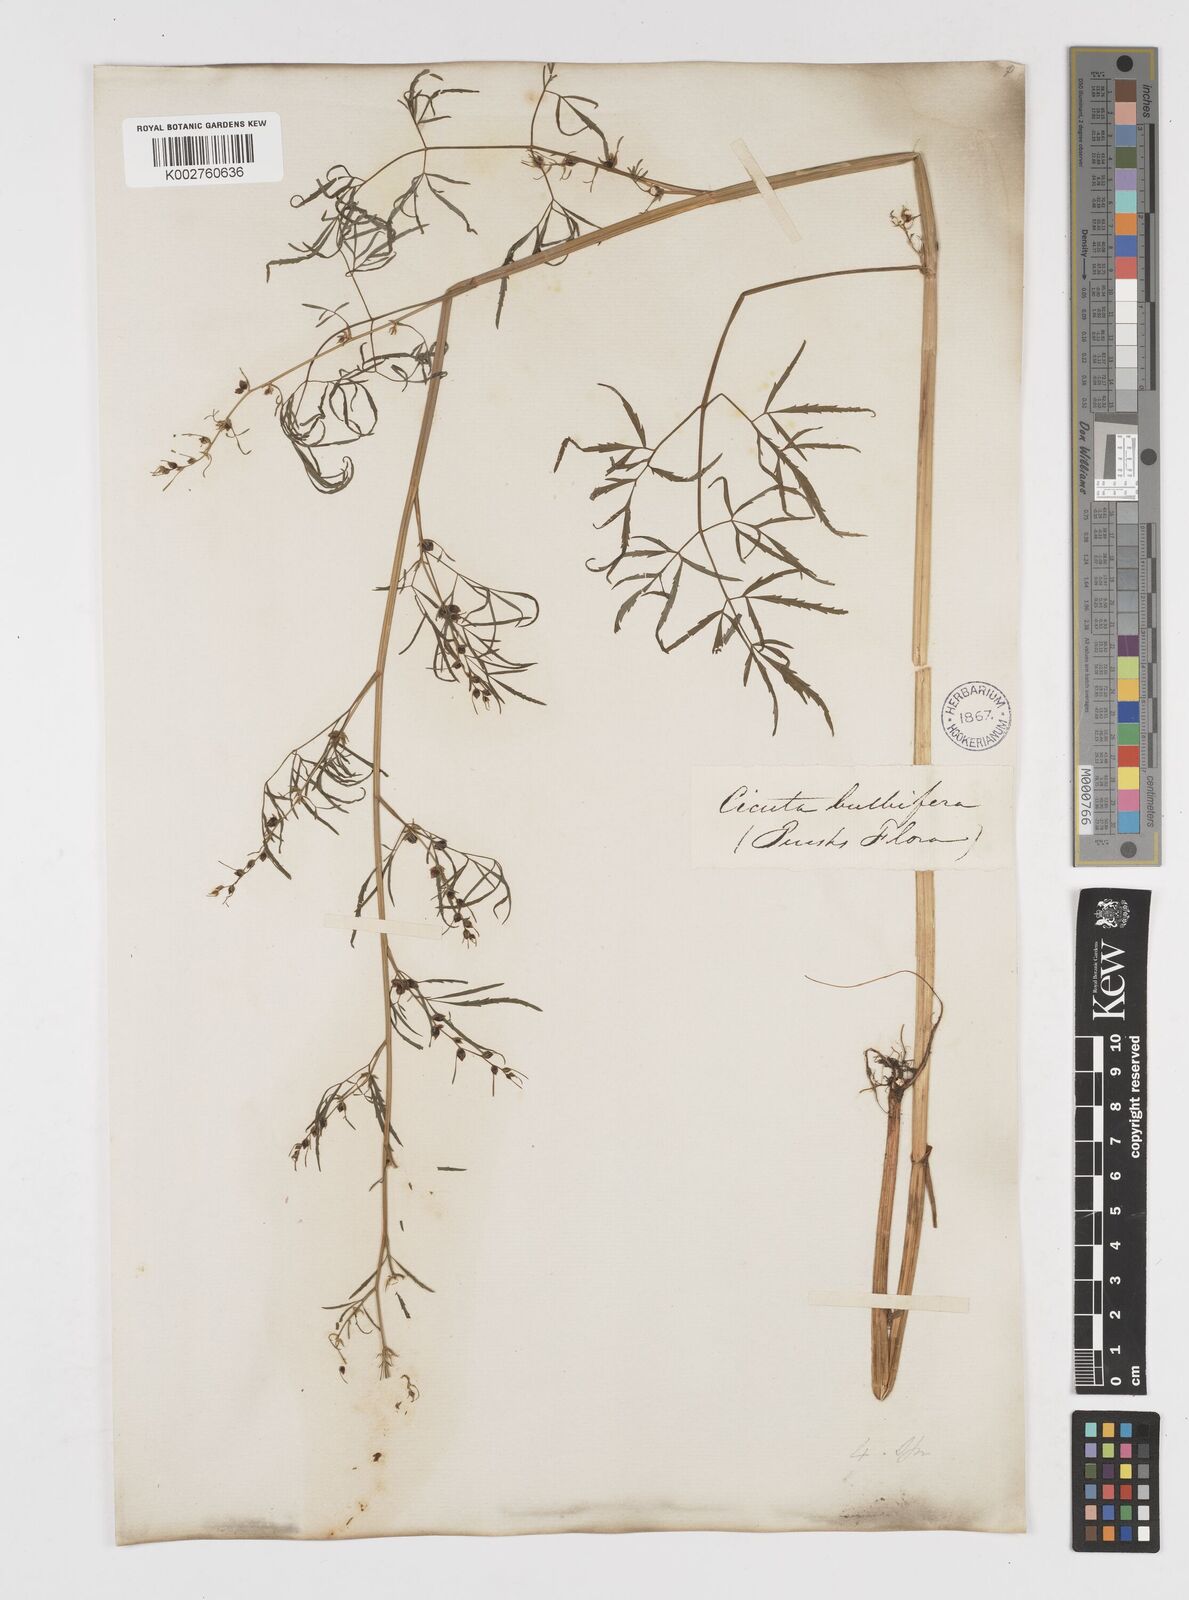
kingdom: Plantae
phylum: Tracheophyta
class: Magnoliopsida
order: Apiales
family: Apiaceae
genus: Cicuta
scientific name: Cicuta bulbifera
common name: Bulb-bearing water-hemlock
